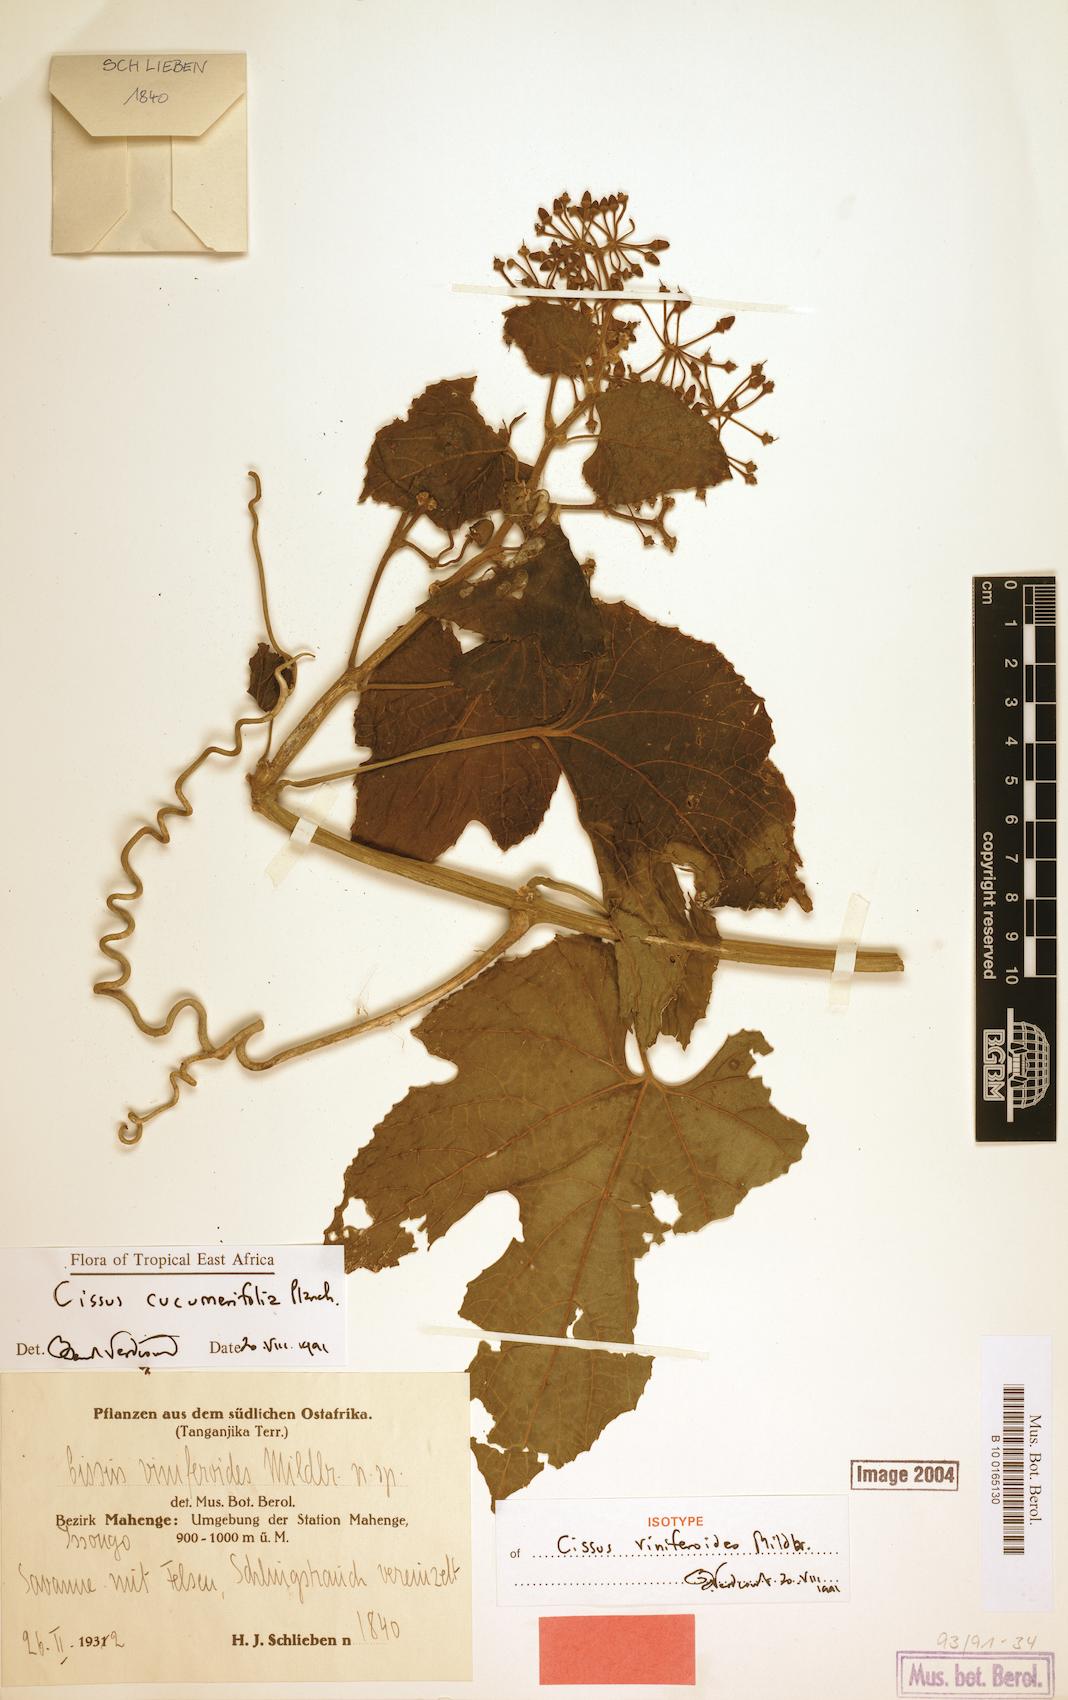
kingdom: Plantae
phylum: Tracheophyta
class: Magnoliopsida
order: Vitales
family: Vitaceae
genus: Cissus
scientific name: Cissus cucumerifolia
